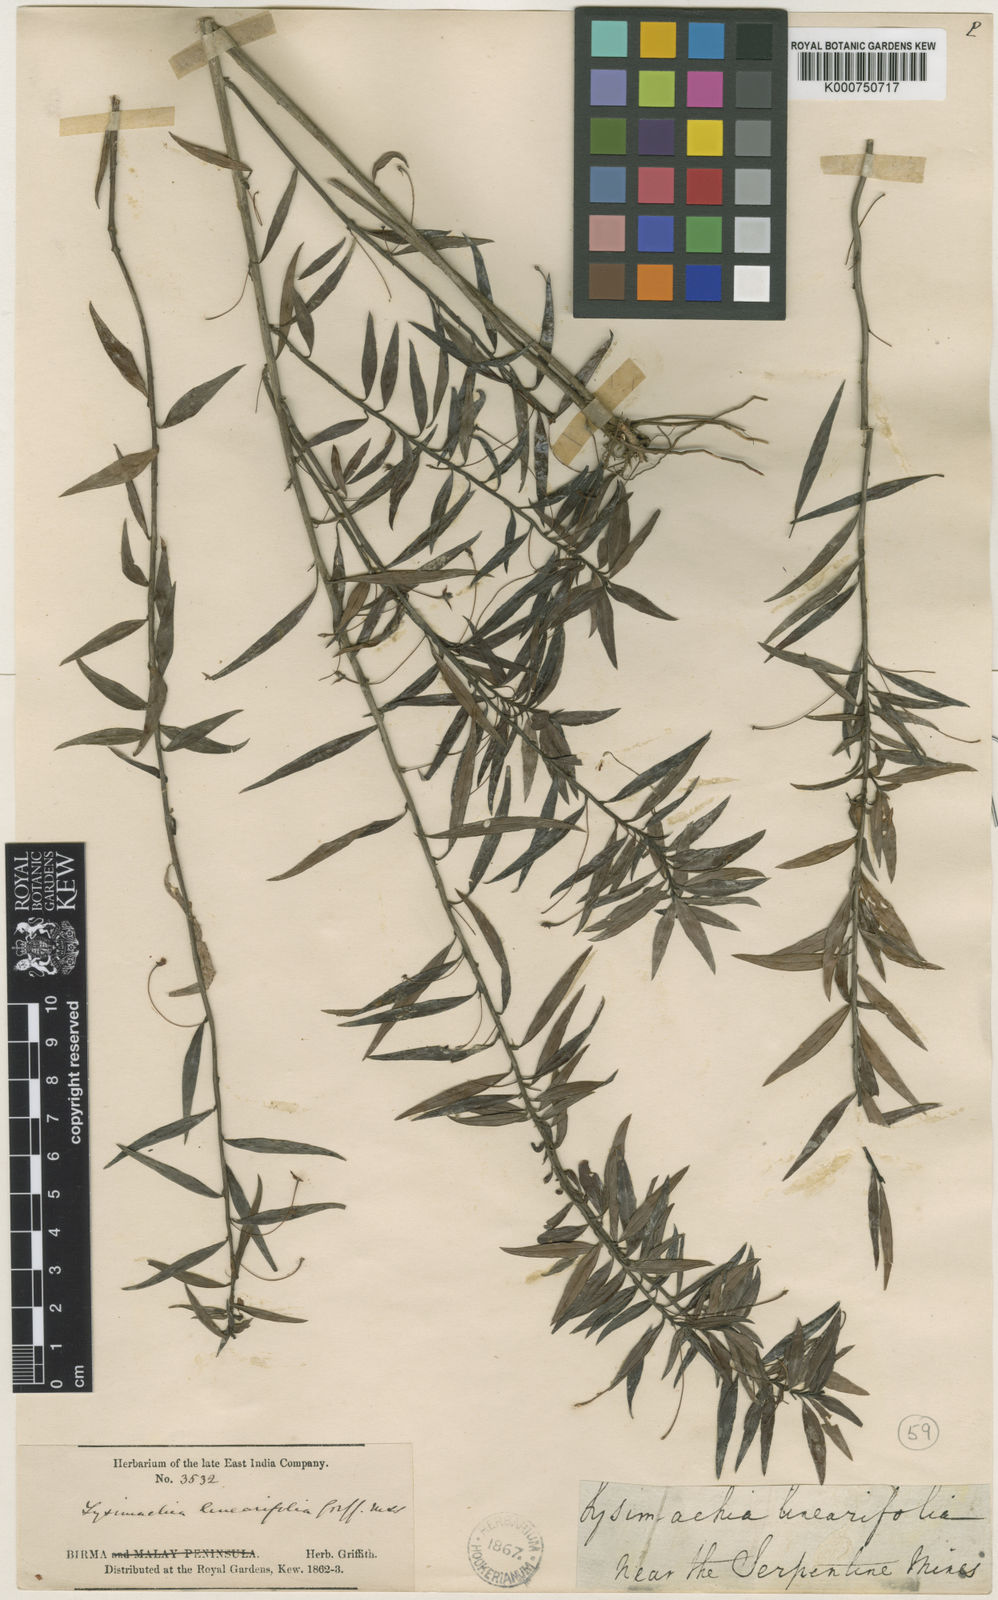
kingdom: Plantae
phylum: Tracheophyta
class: Magnoliopsida
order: Ericales
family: Primulaceae
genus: Lysimachia
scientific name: Lysimachia linearifolia
